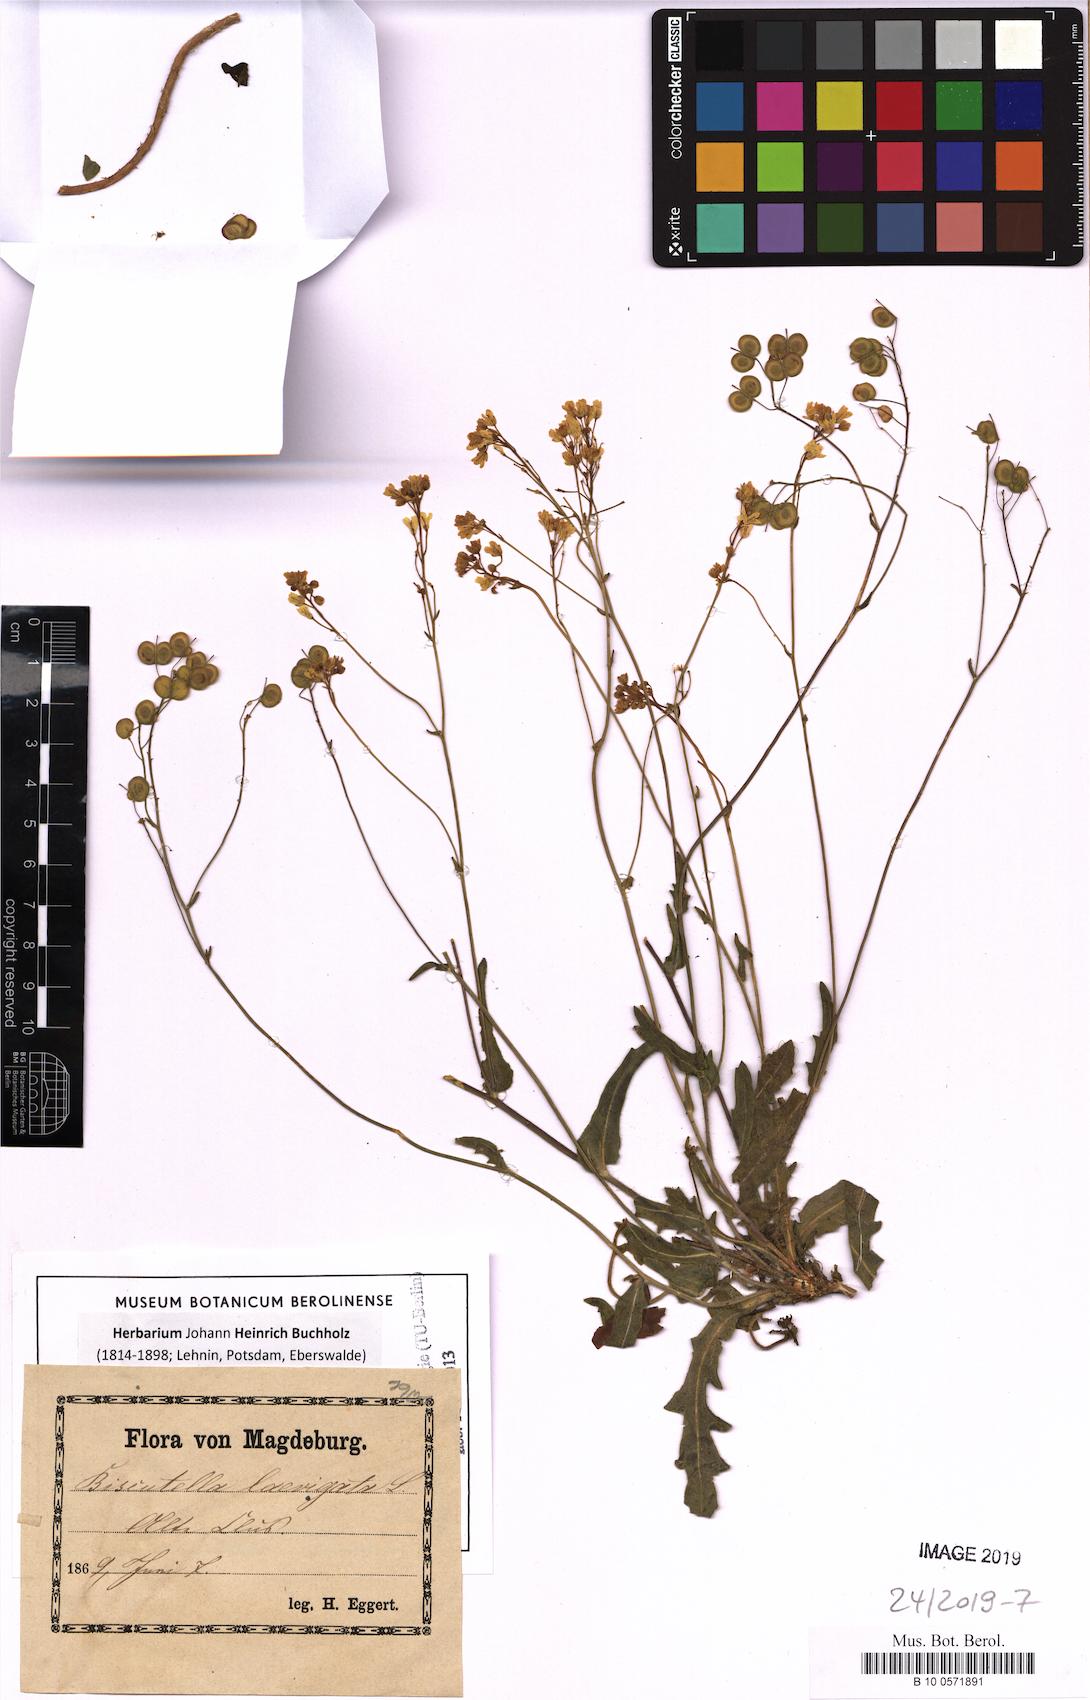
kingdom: Plantae
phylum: Tracheophyta
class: Magnoliopsida
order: Brassicales
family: Brassicaceae
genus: Biscutella
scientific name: Biscutella laevigata
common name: Buckler mustard
